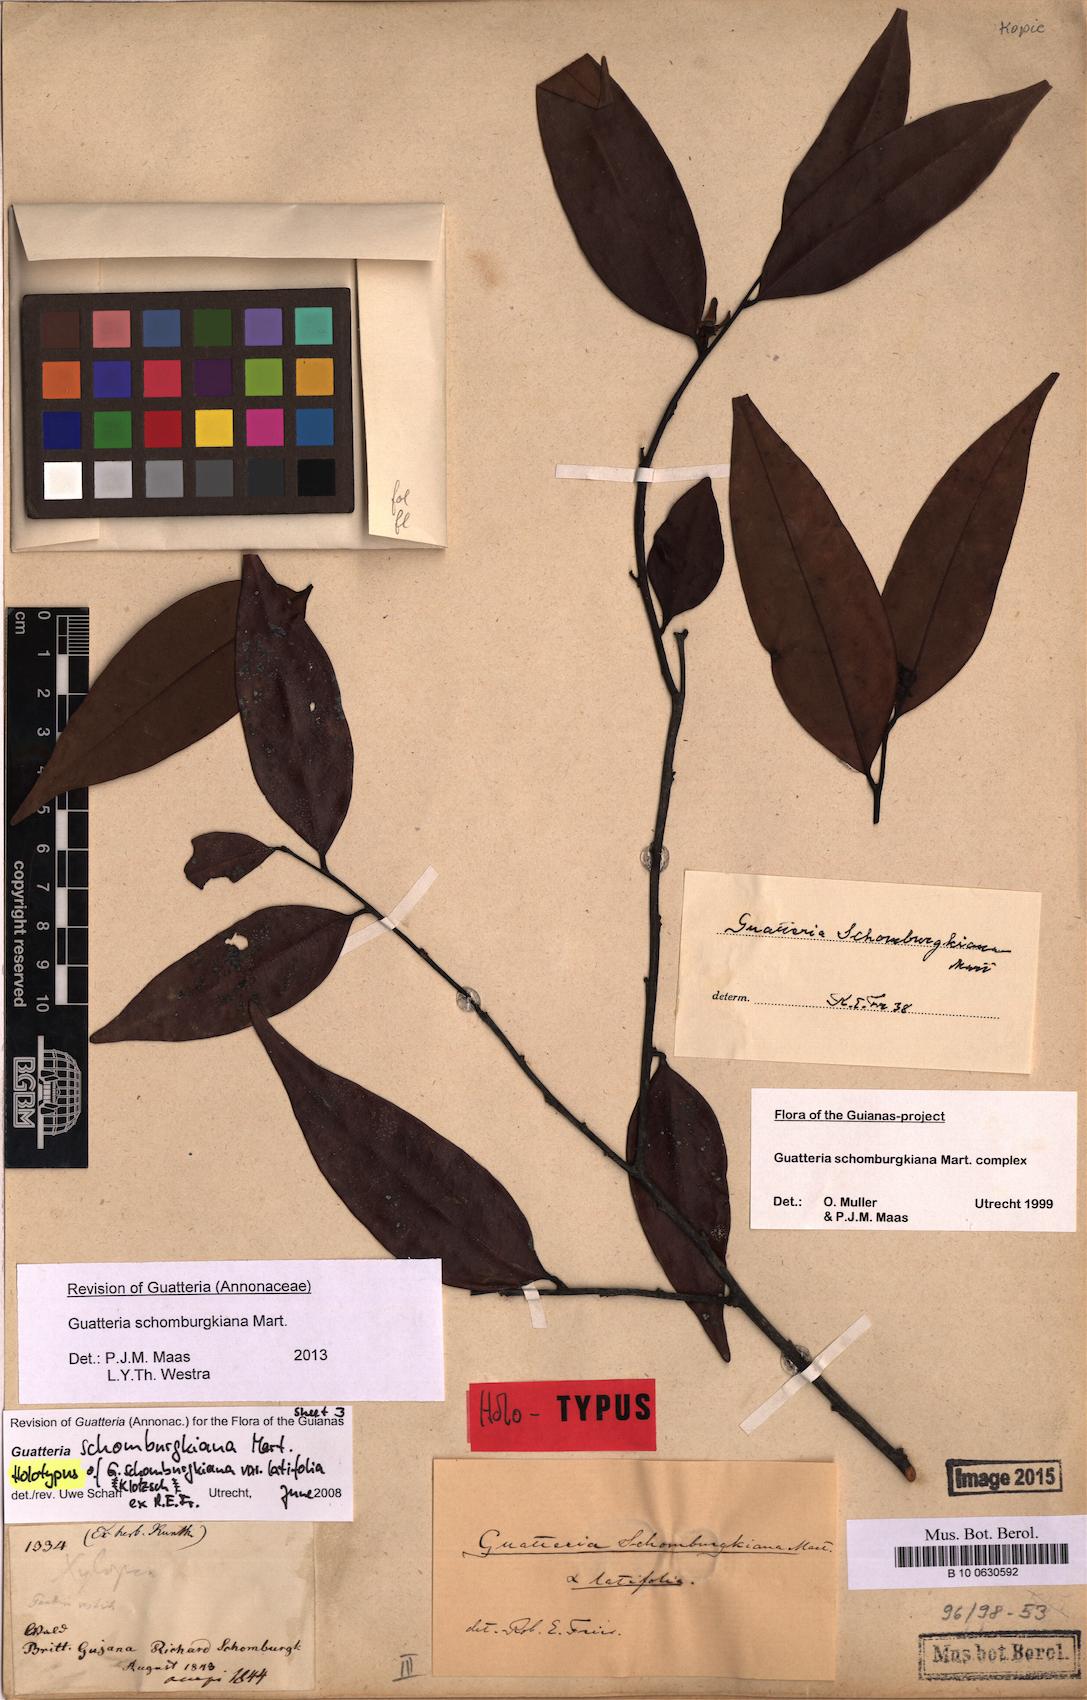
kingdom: Plantae
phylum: Tracheophyta
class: Magnoliopsida
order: Magnoliales
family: Annonaceae
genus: Guatteria
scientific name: Guatteria schomburgkiana
